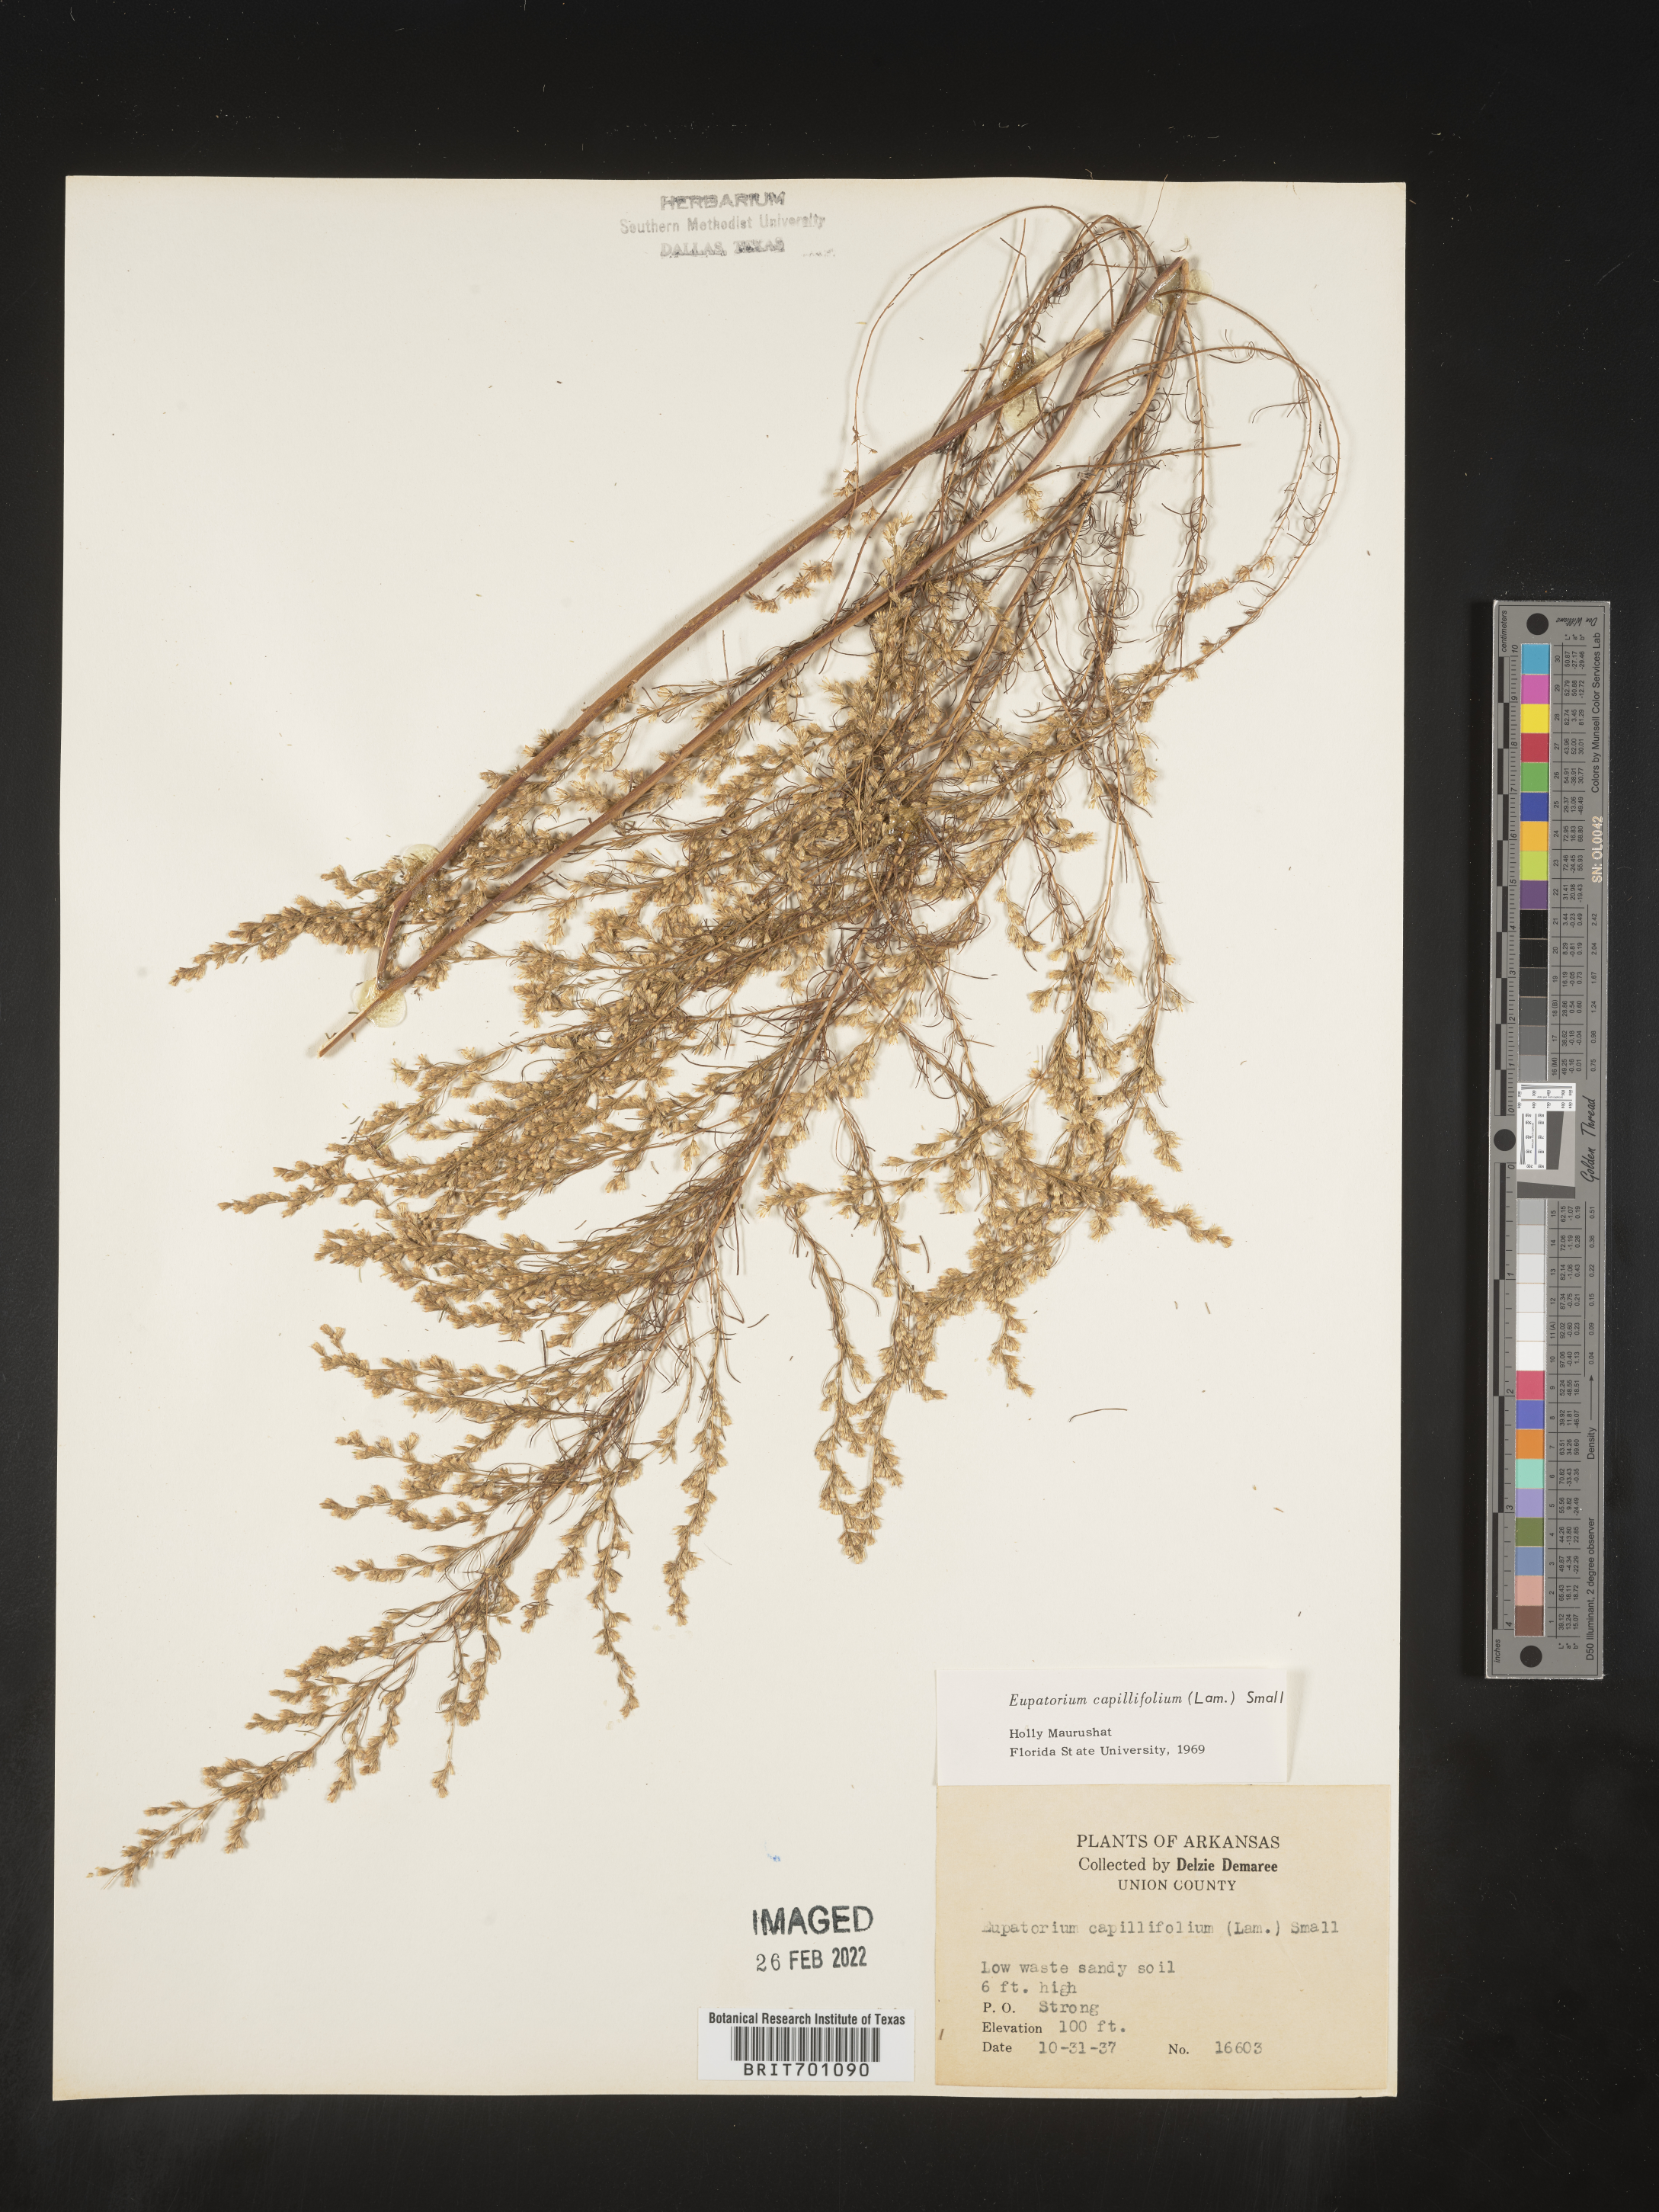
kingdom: Plantae
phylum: Tracheophyta
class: Magnoliopsida
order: Asterales
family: Asteraceae
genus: Eupatorium
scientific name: Eupatorium capillifolium
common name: Dog-fennel
